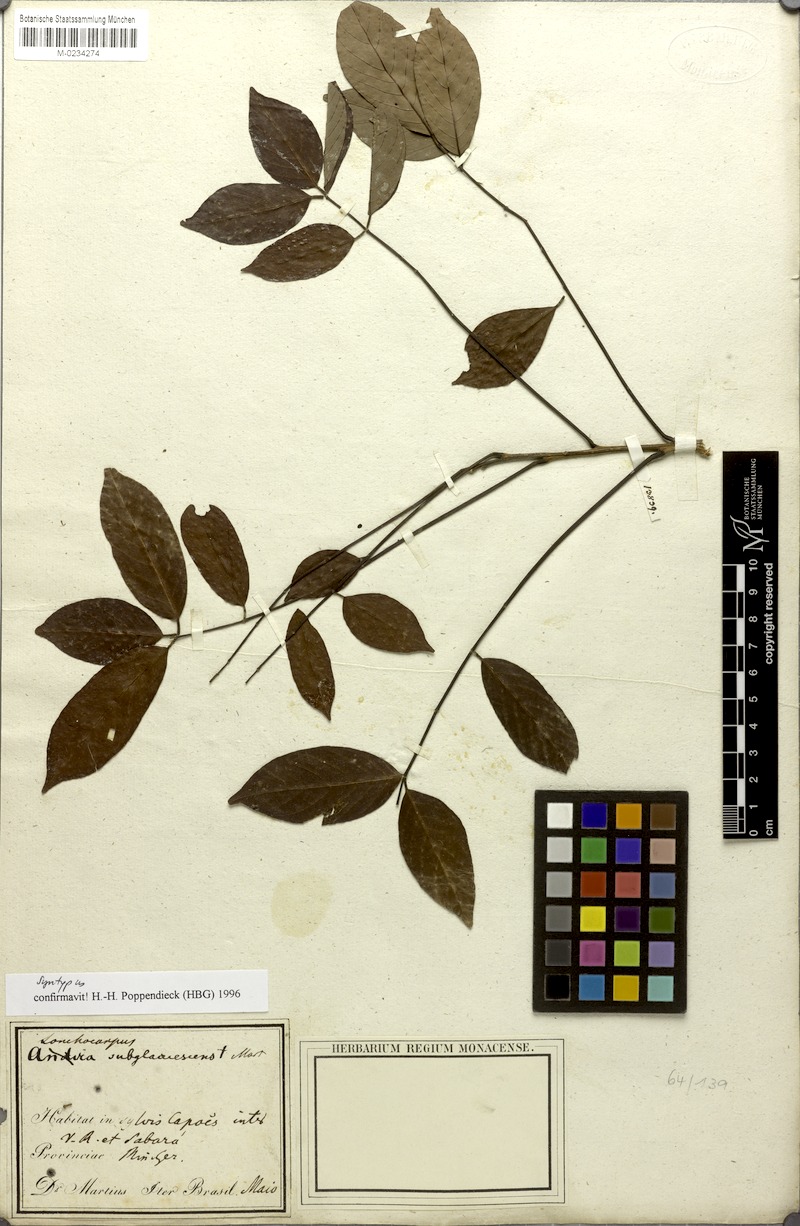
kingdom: Plantae
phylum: Tracheophyta
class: Magnoliopsida
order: Fabales
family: Fabaceae
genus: Lonchocarpus
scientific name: Lonchocarpus subglaucescens
